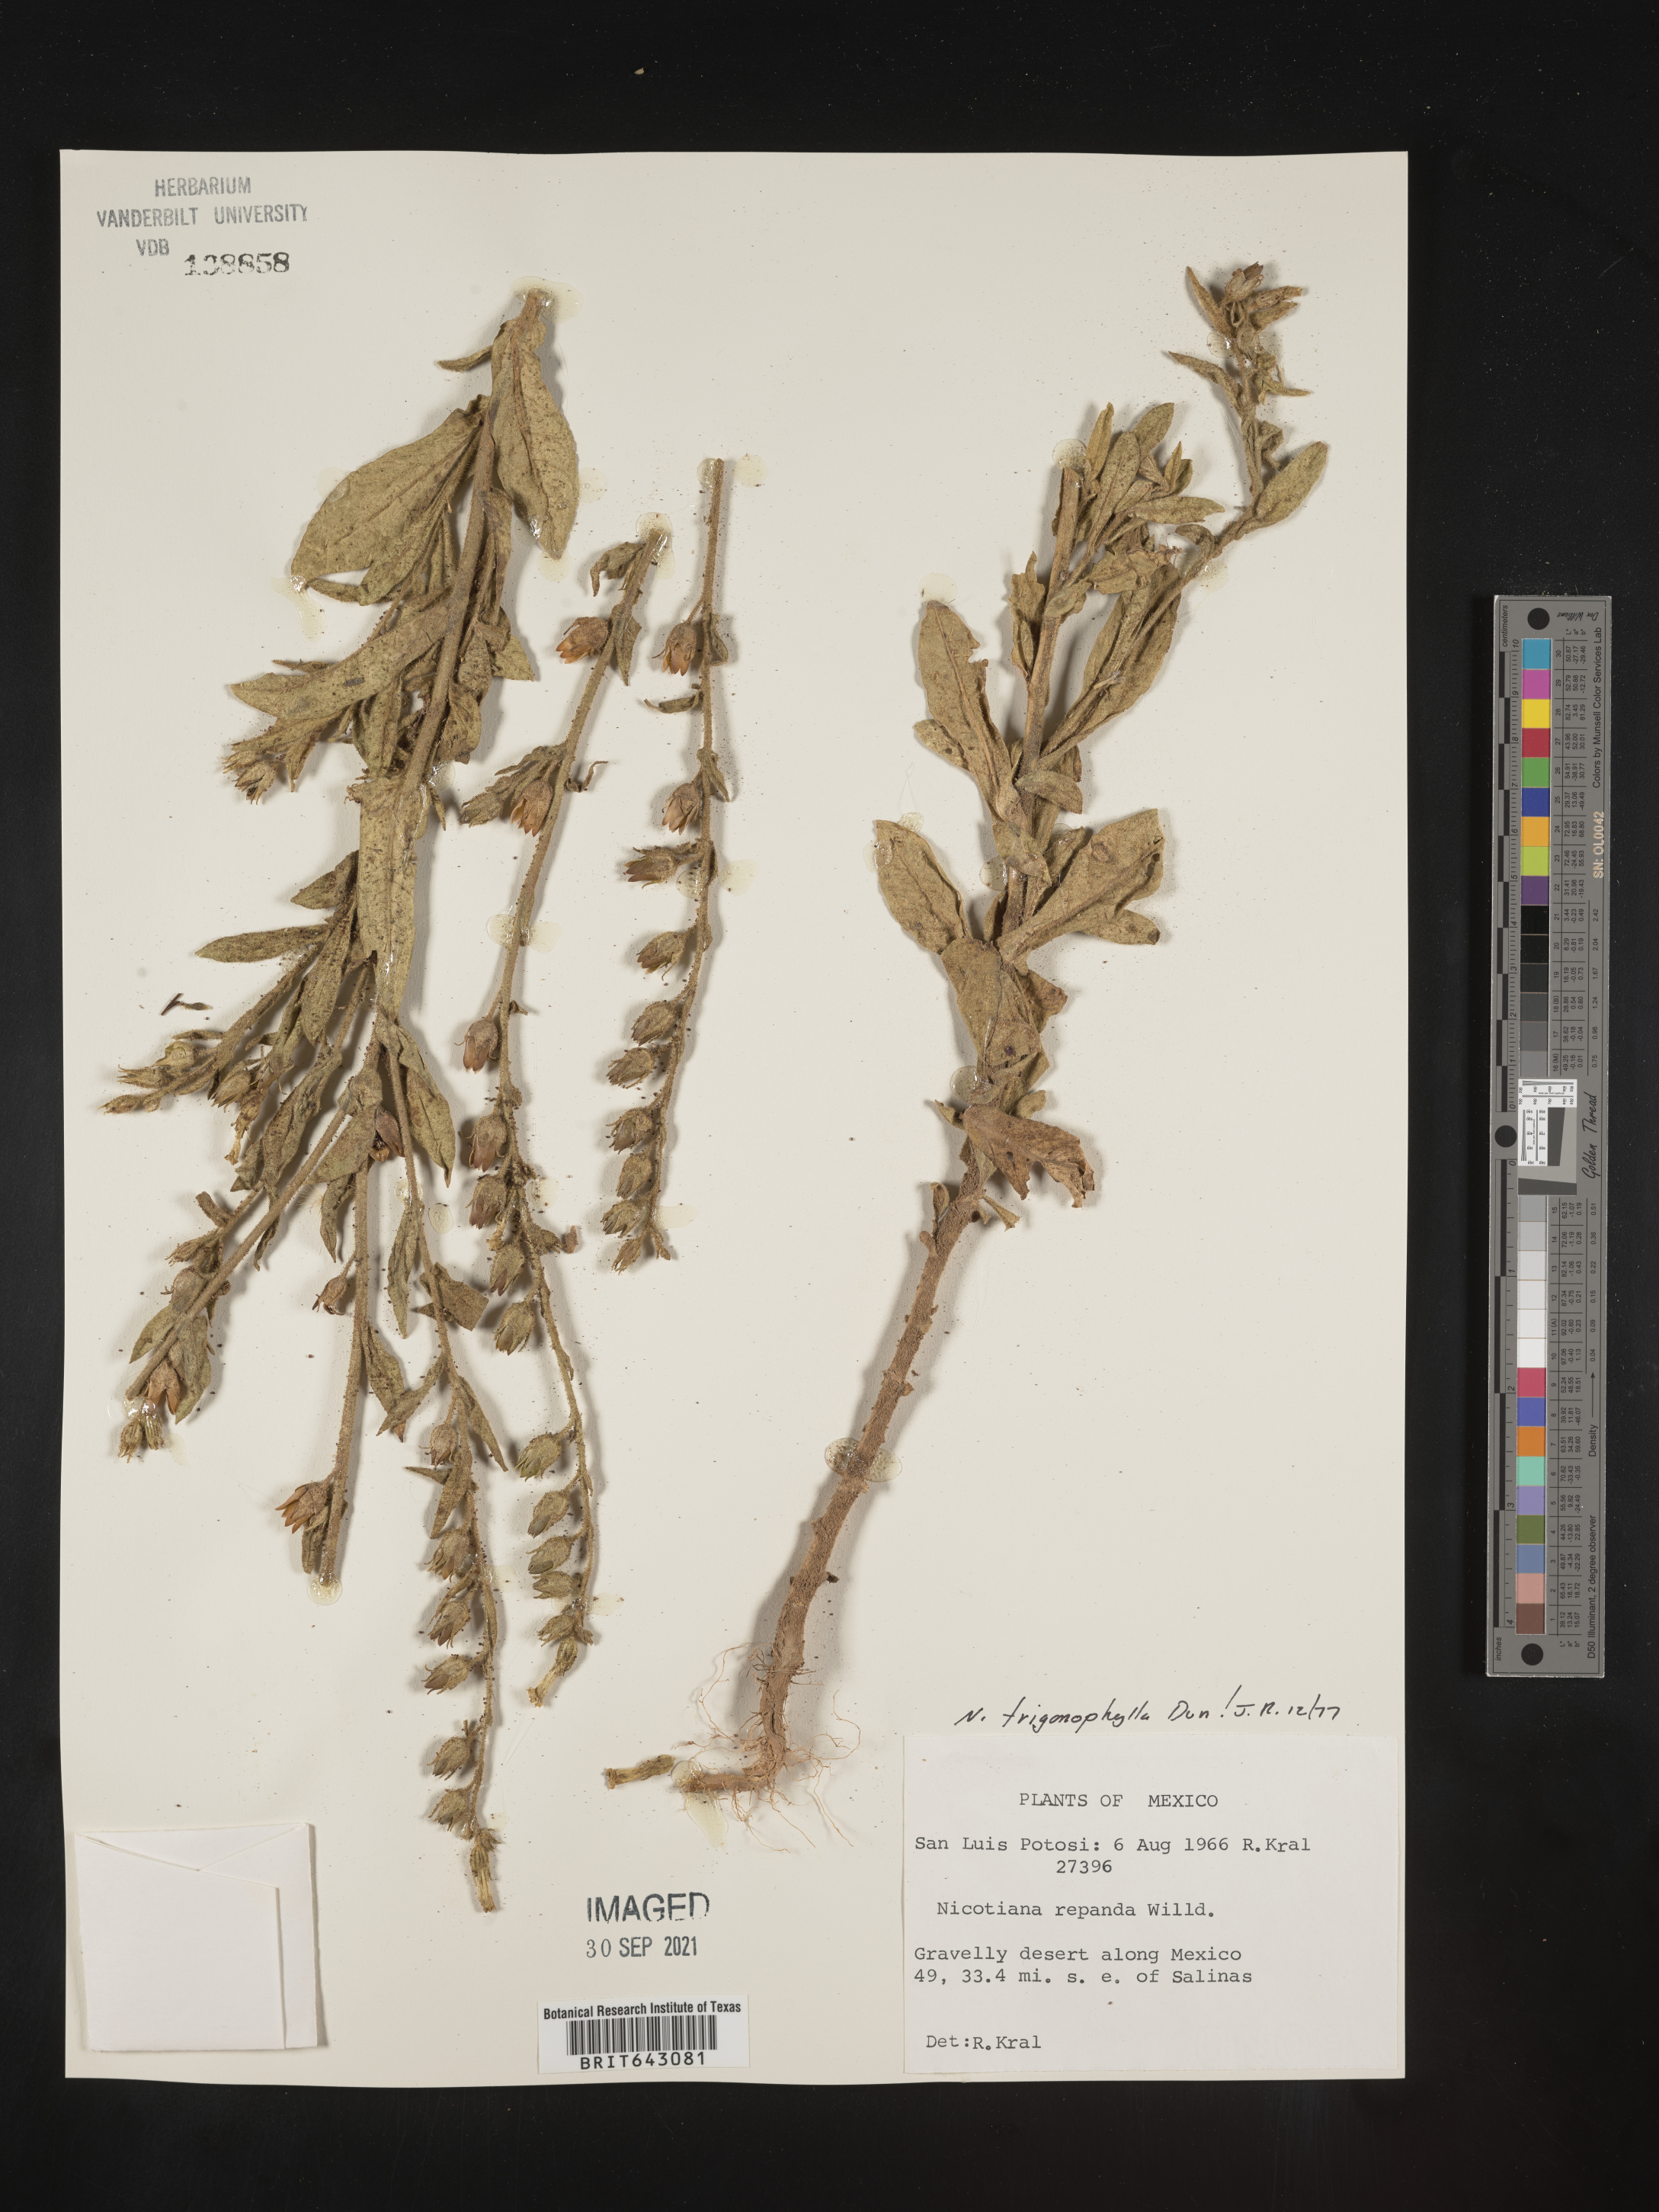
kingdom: Plantae
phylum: Tracheophyta
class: Magnoliopsida
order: Solanales
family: Solanaceae
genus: Nicotiana
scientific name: Nicotiana
